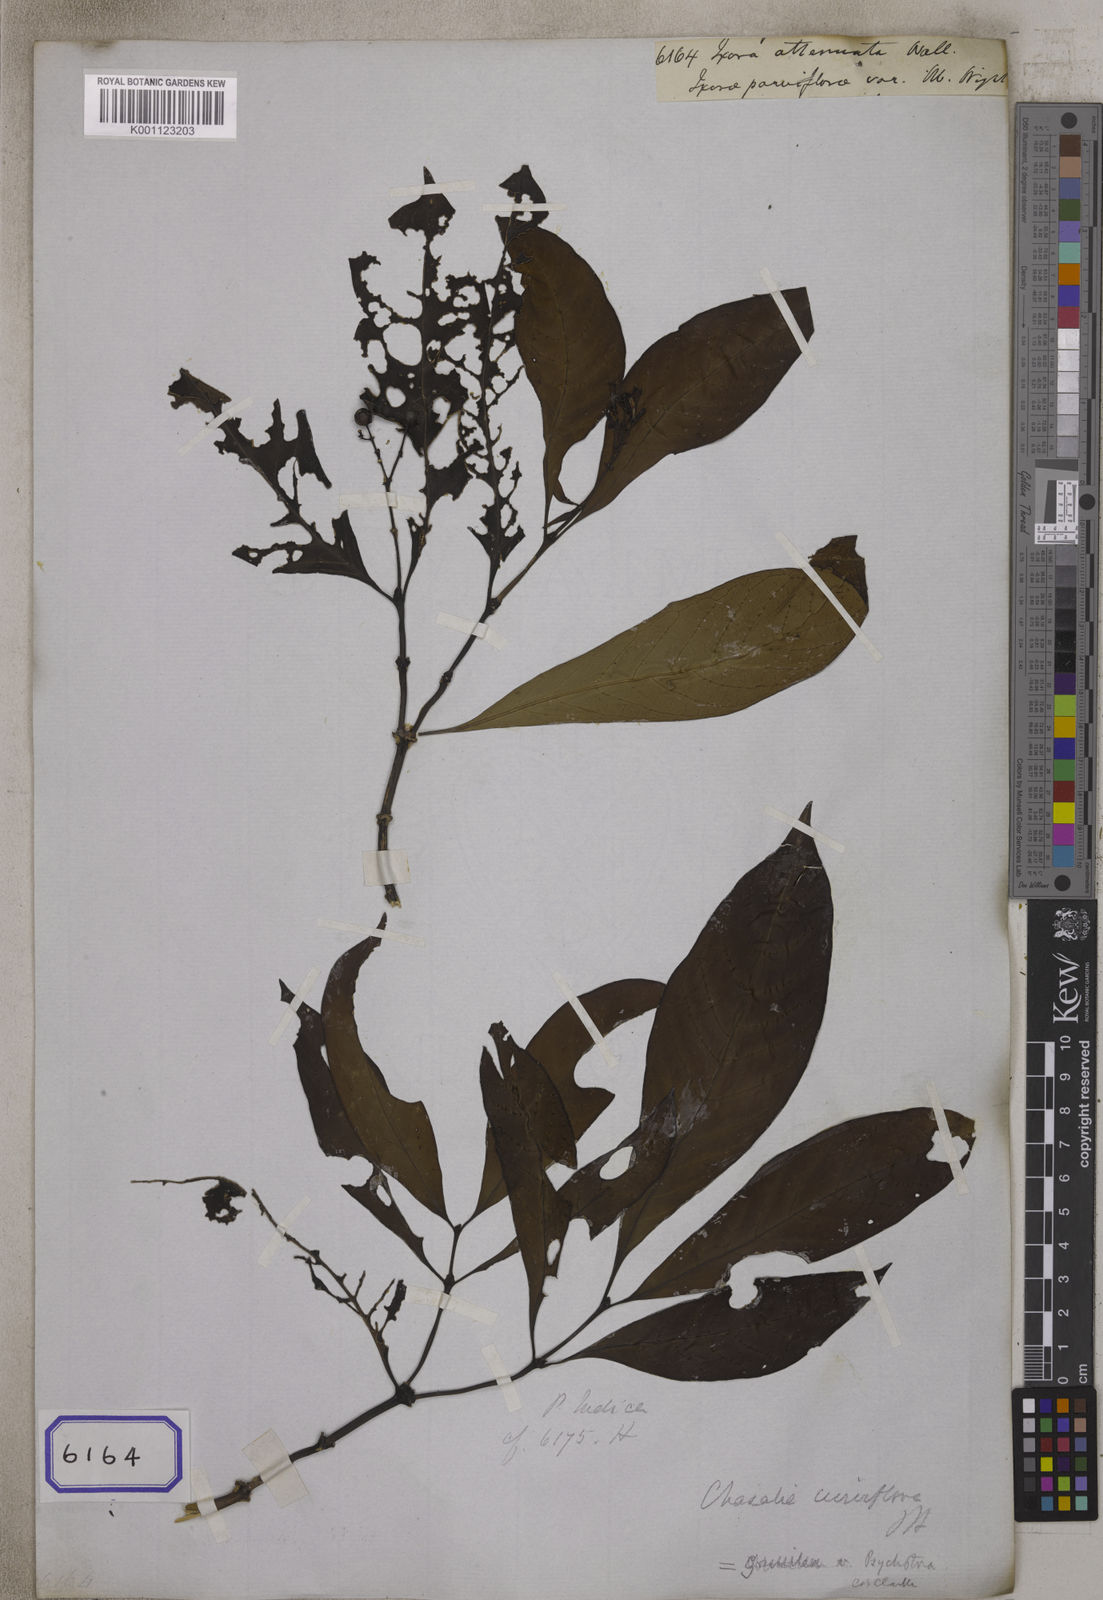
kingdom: Plantae
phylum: Tracheophyta
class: Magnoliopsida
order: Gentianales
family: Rubiaceae
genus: Ixora
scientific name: Ixora
